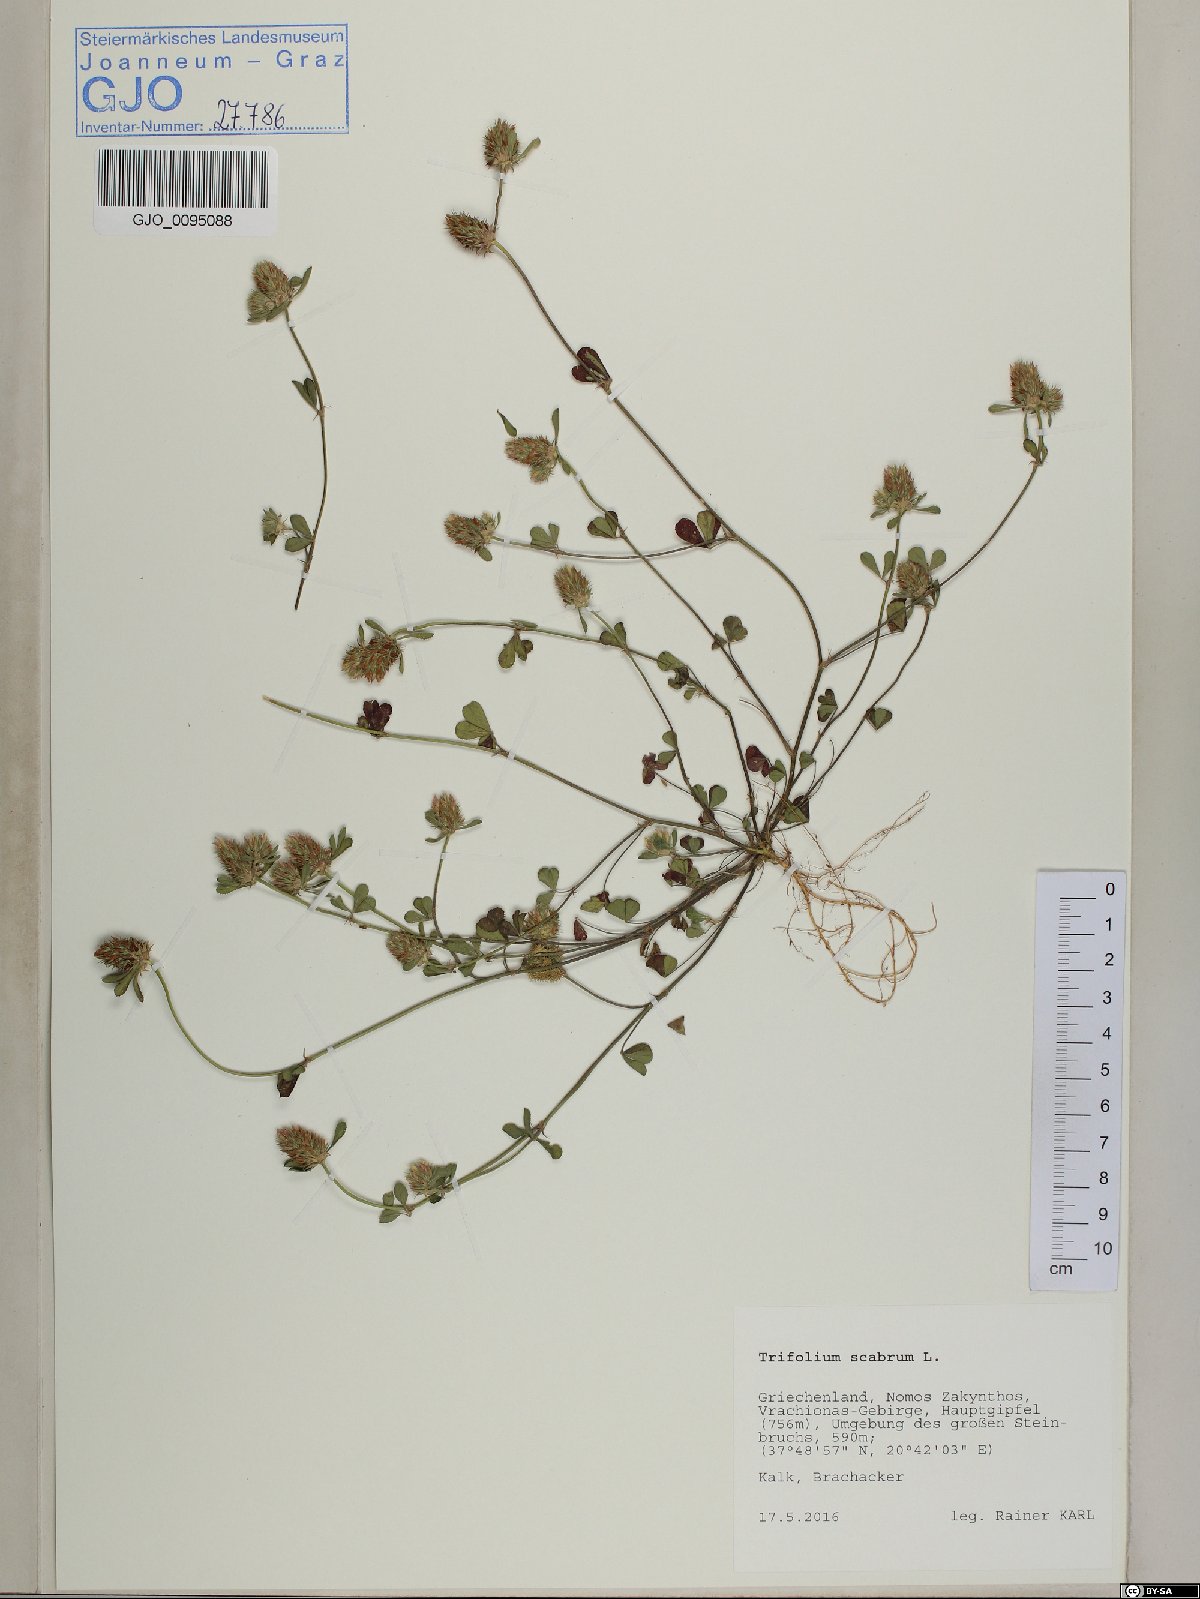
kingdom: Plantae
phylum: Tracheophyta
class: Magnoliopsida
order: Fabales
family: Fabaceae
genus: Trifolium
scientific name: Trifolium scabrum
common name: Rough clover
